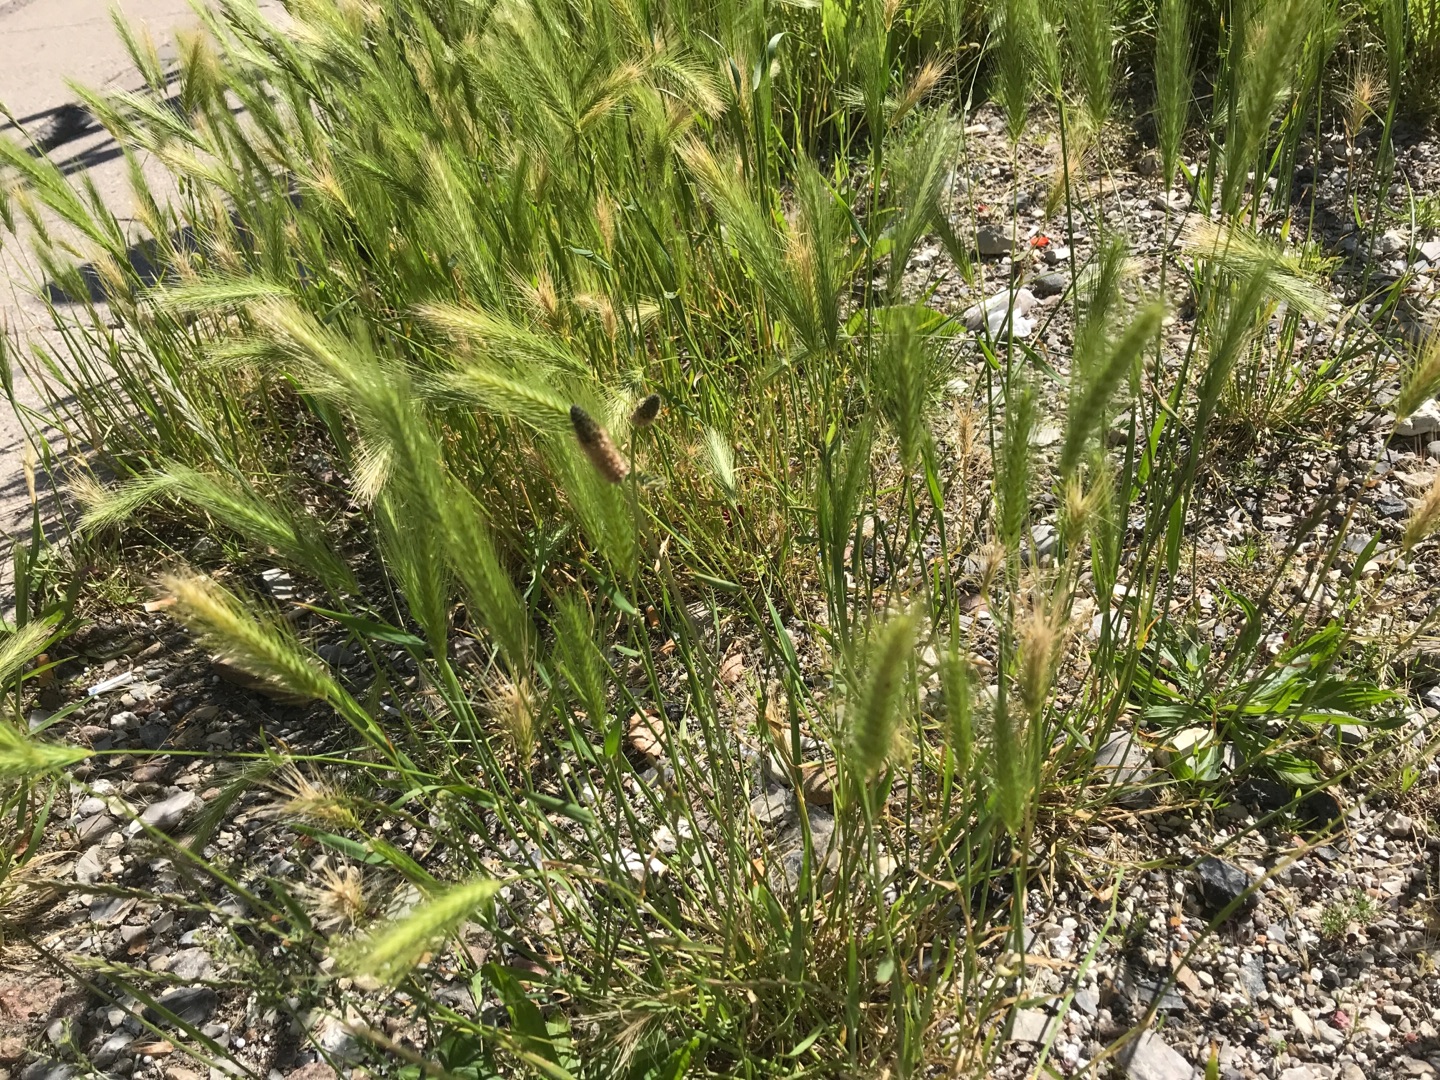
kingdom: Plantae
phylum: Tracheophyta
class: Liliopsida
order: Poales
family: Poaceae
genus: Hordeum
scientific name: Hordeum murinum
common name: Gold byg
